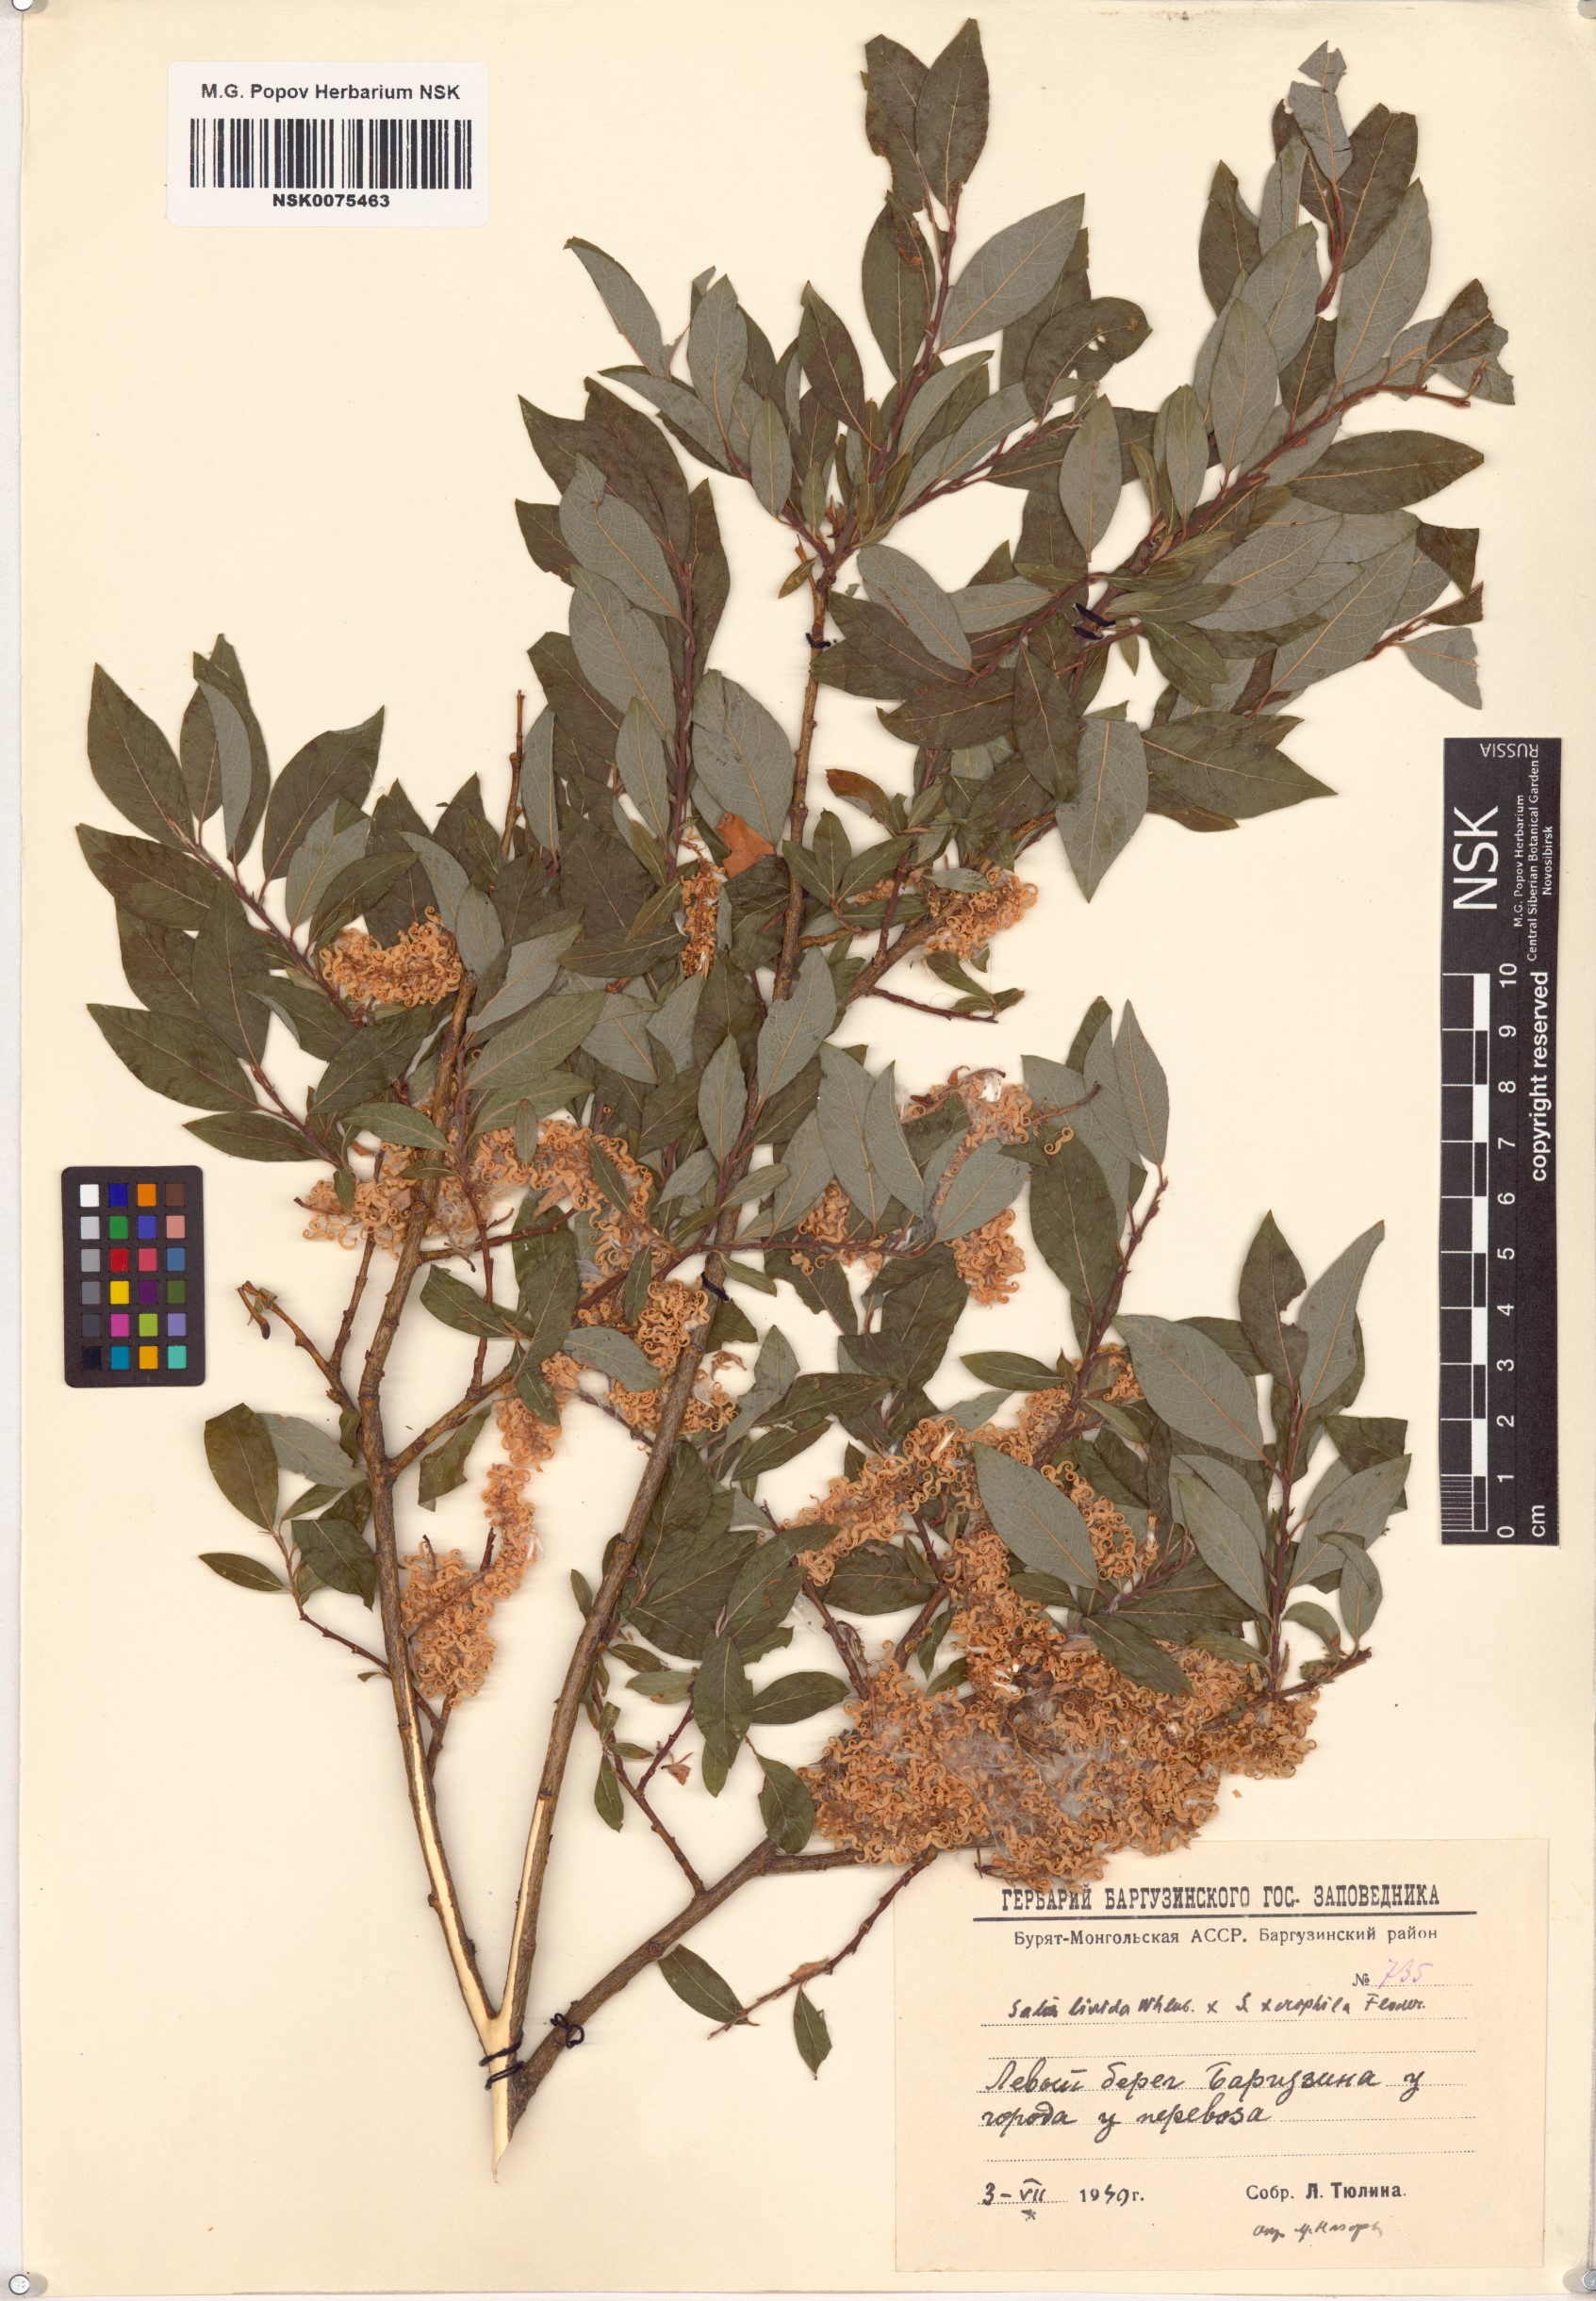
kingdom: Plantae
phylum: Tracheophyta
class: Magnoliopsida
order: Malpighiales
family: Salicaceae
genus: Salix
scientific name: Salix
